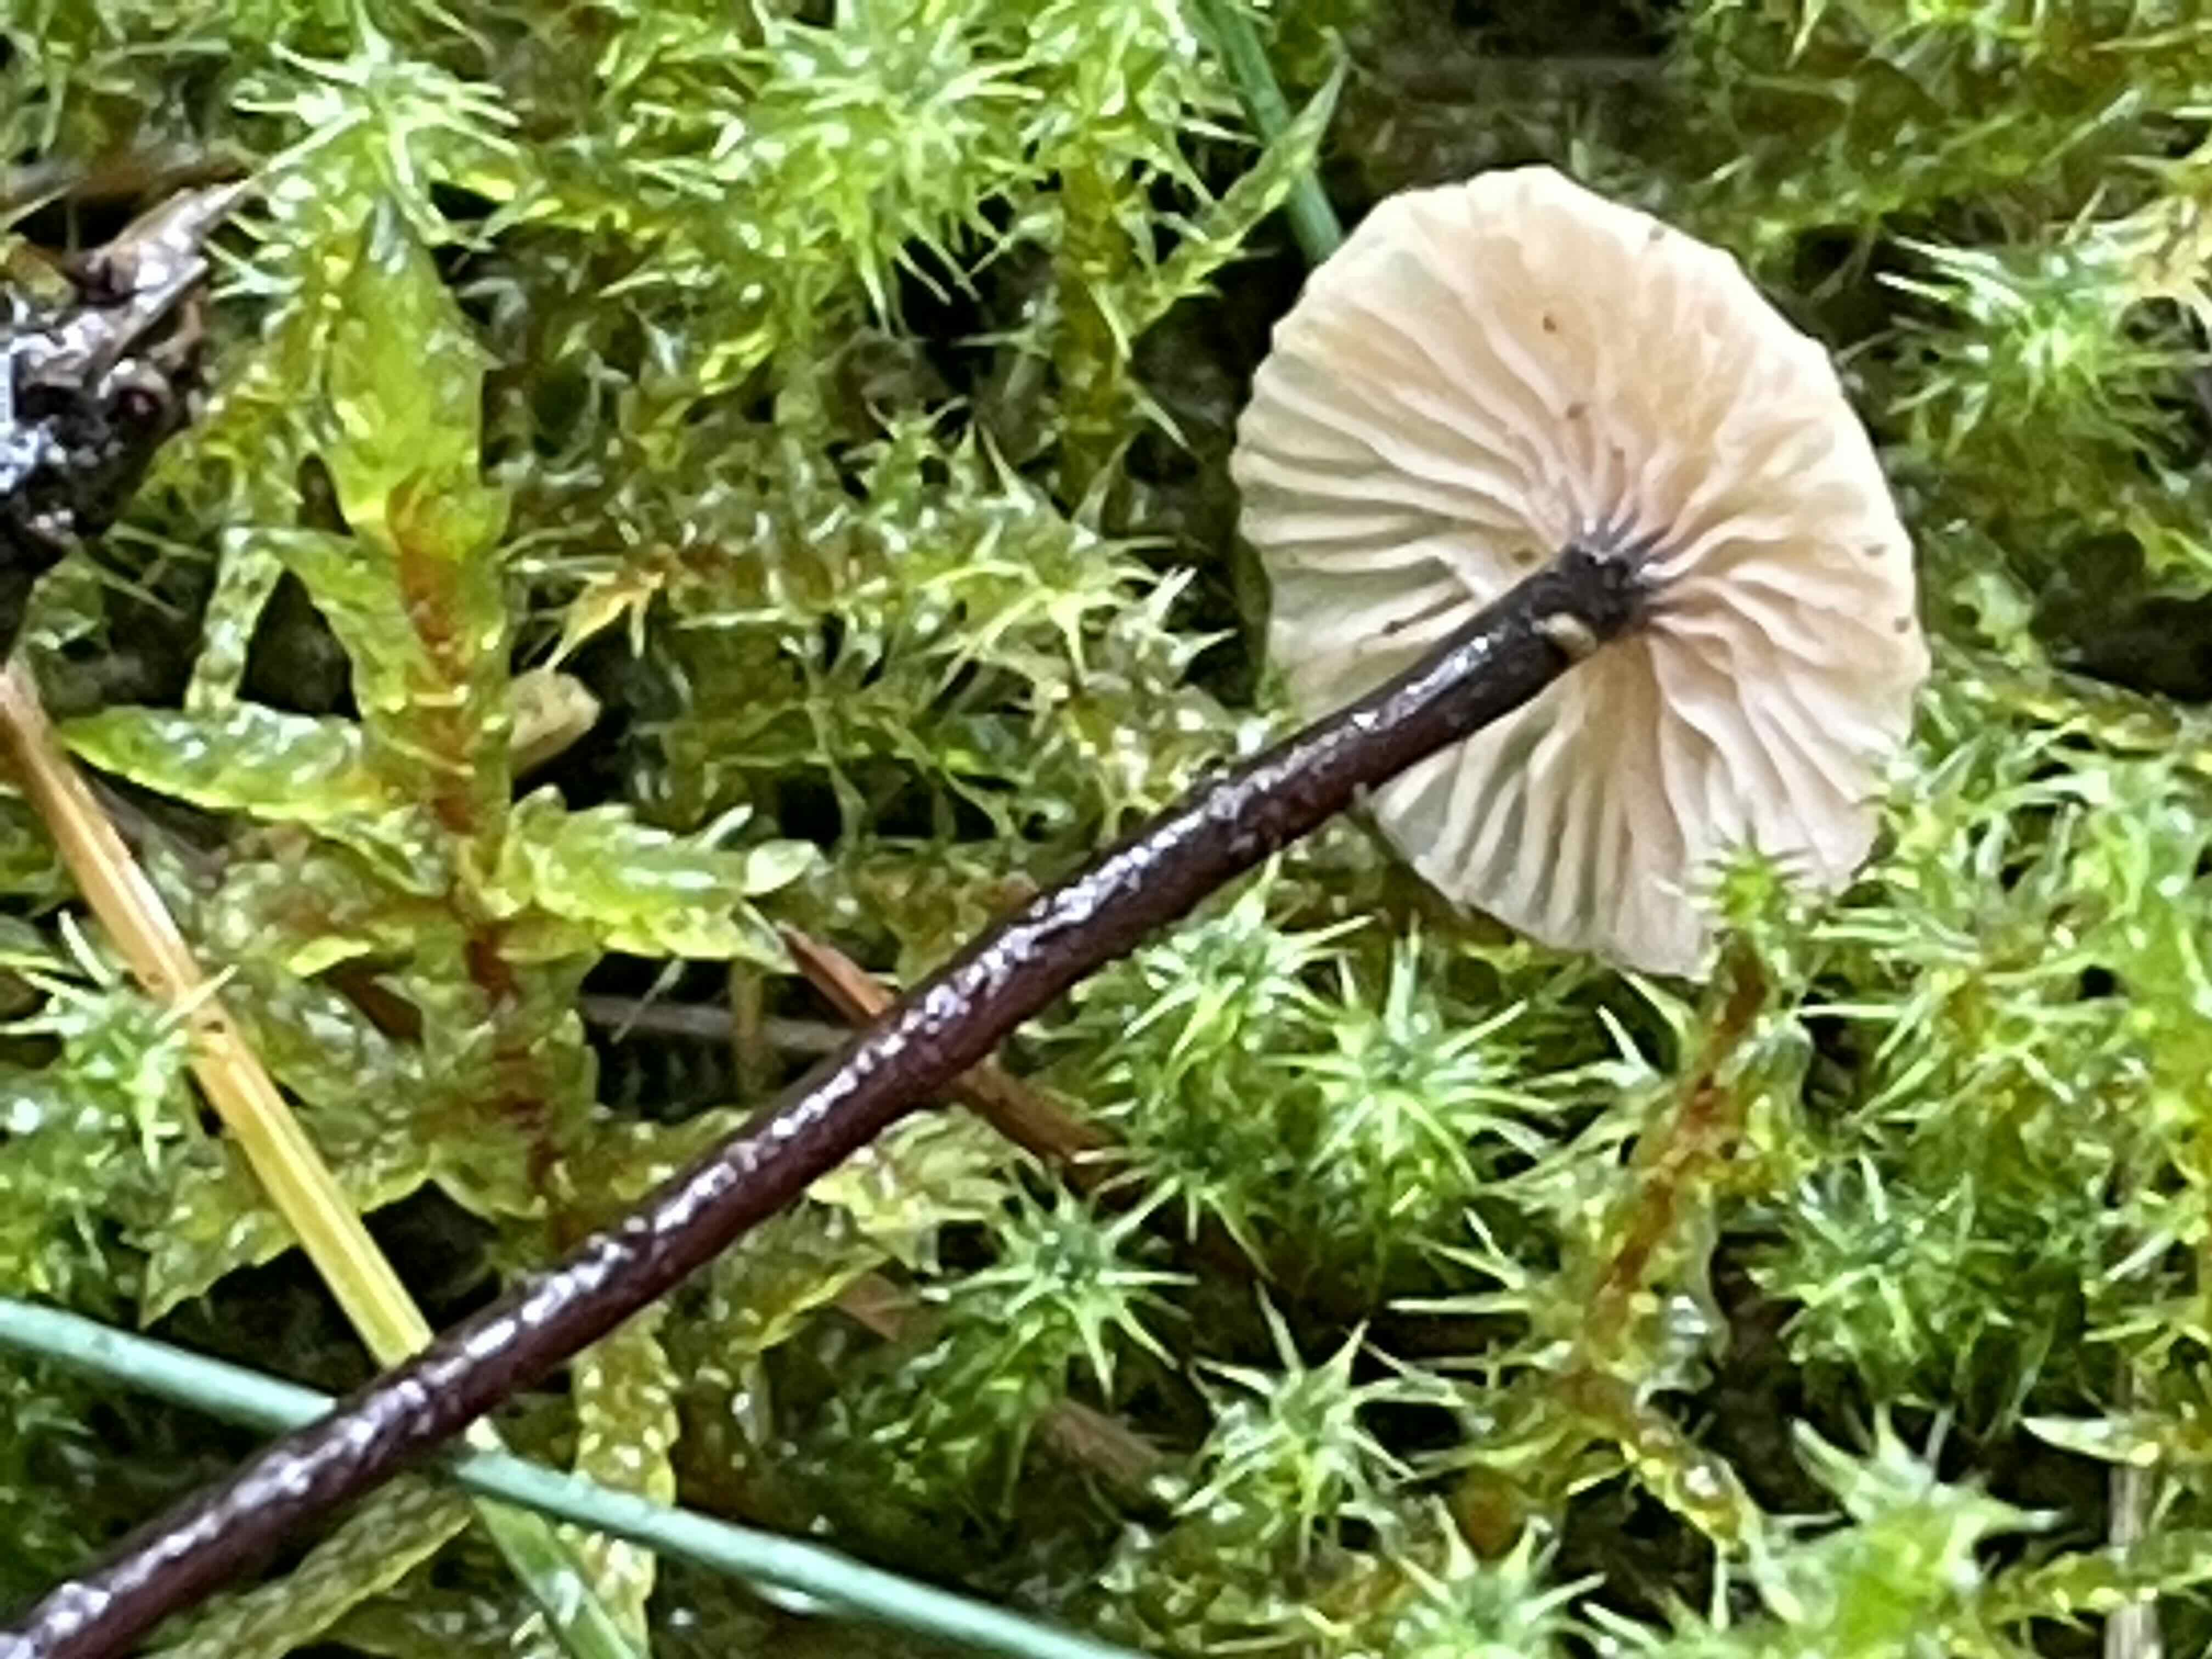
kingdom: Fungi
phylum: Basidiomycota
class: Agaricomycetes
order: Agaricales
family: Omphalotaceae
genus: Paragymnopus
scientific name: Paragymnopus perforans
